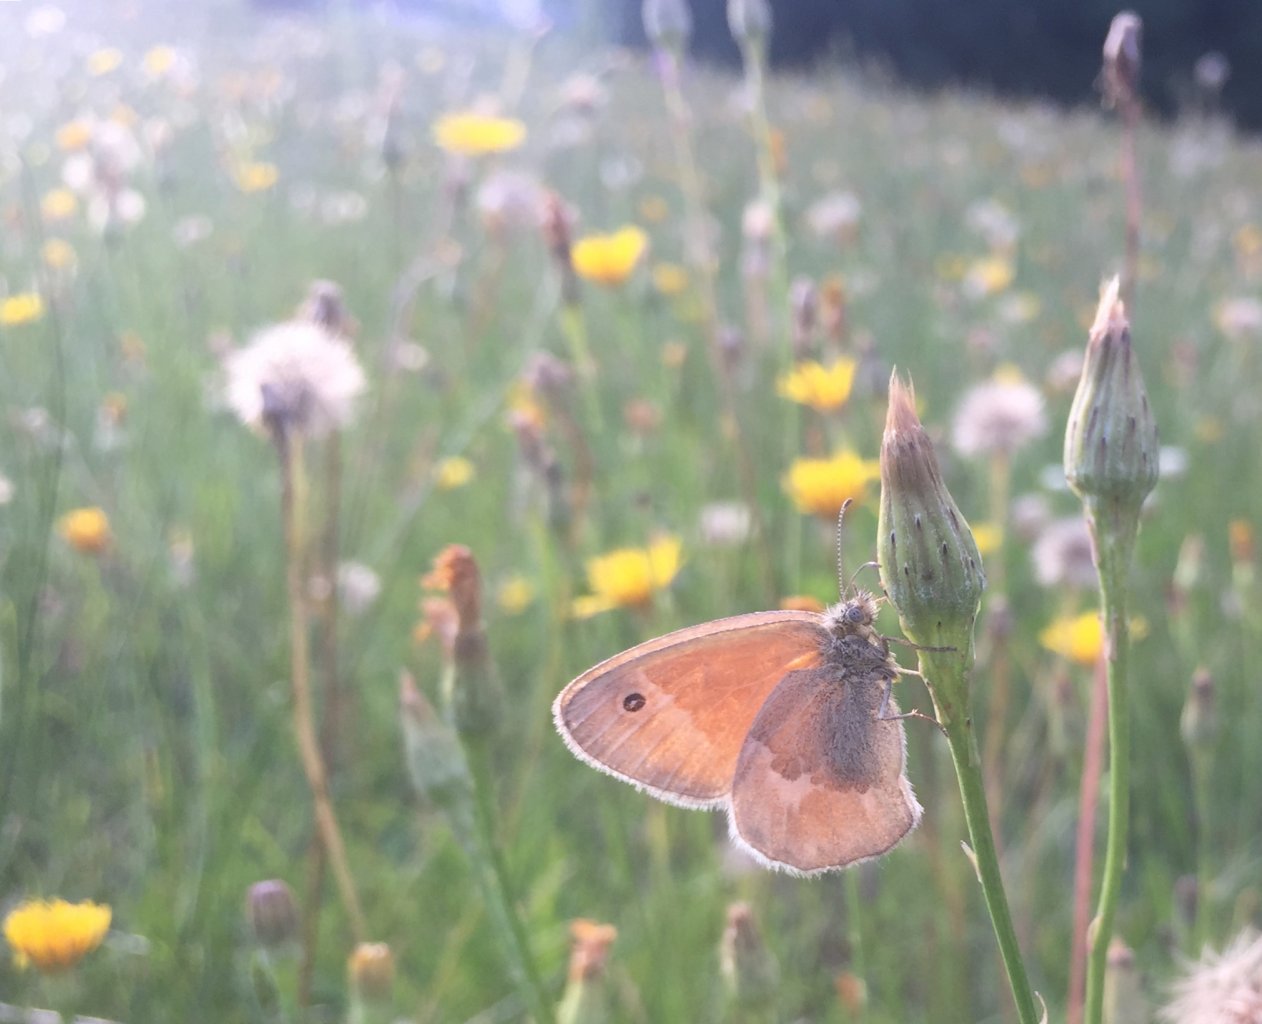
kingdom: Animalia
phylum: Arthropoda
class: Insecta
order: Lepidoptera
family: Nymphalidae
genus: Coenonympha
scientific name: Coenonympha tullia
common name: Large Heath
